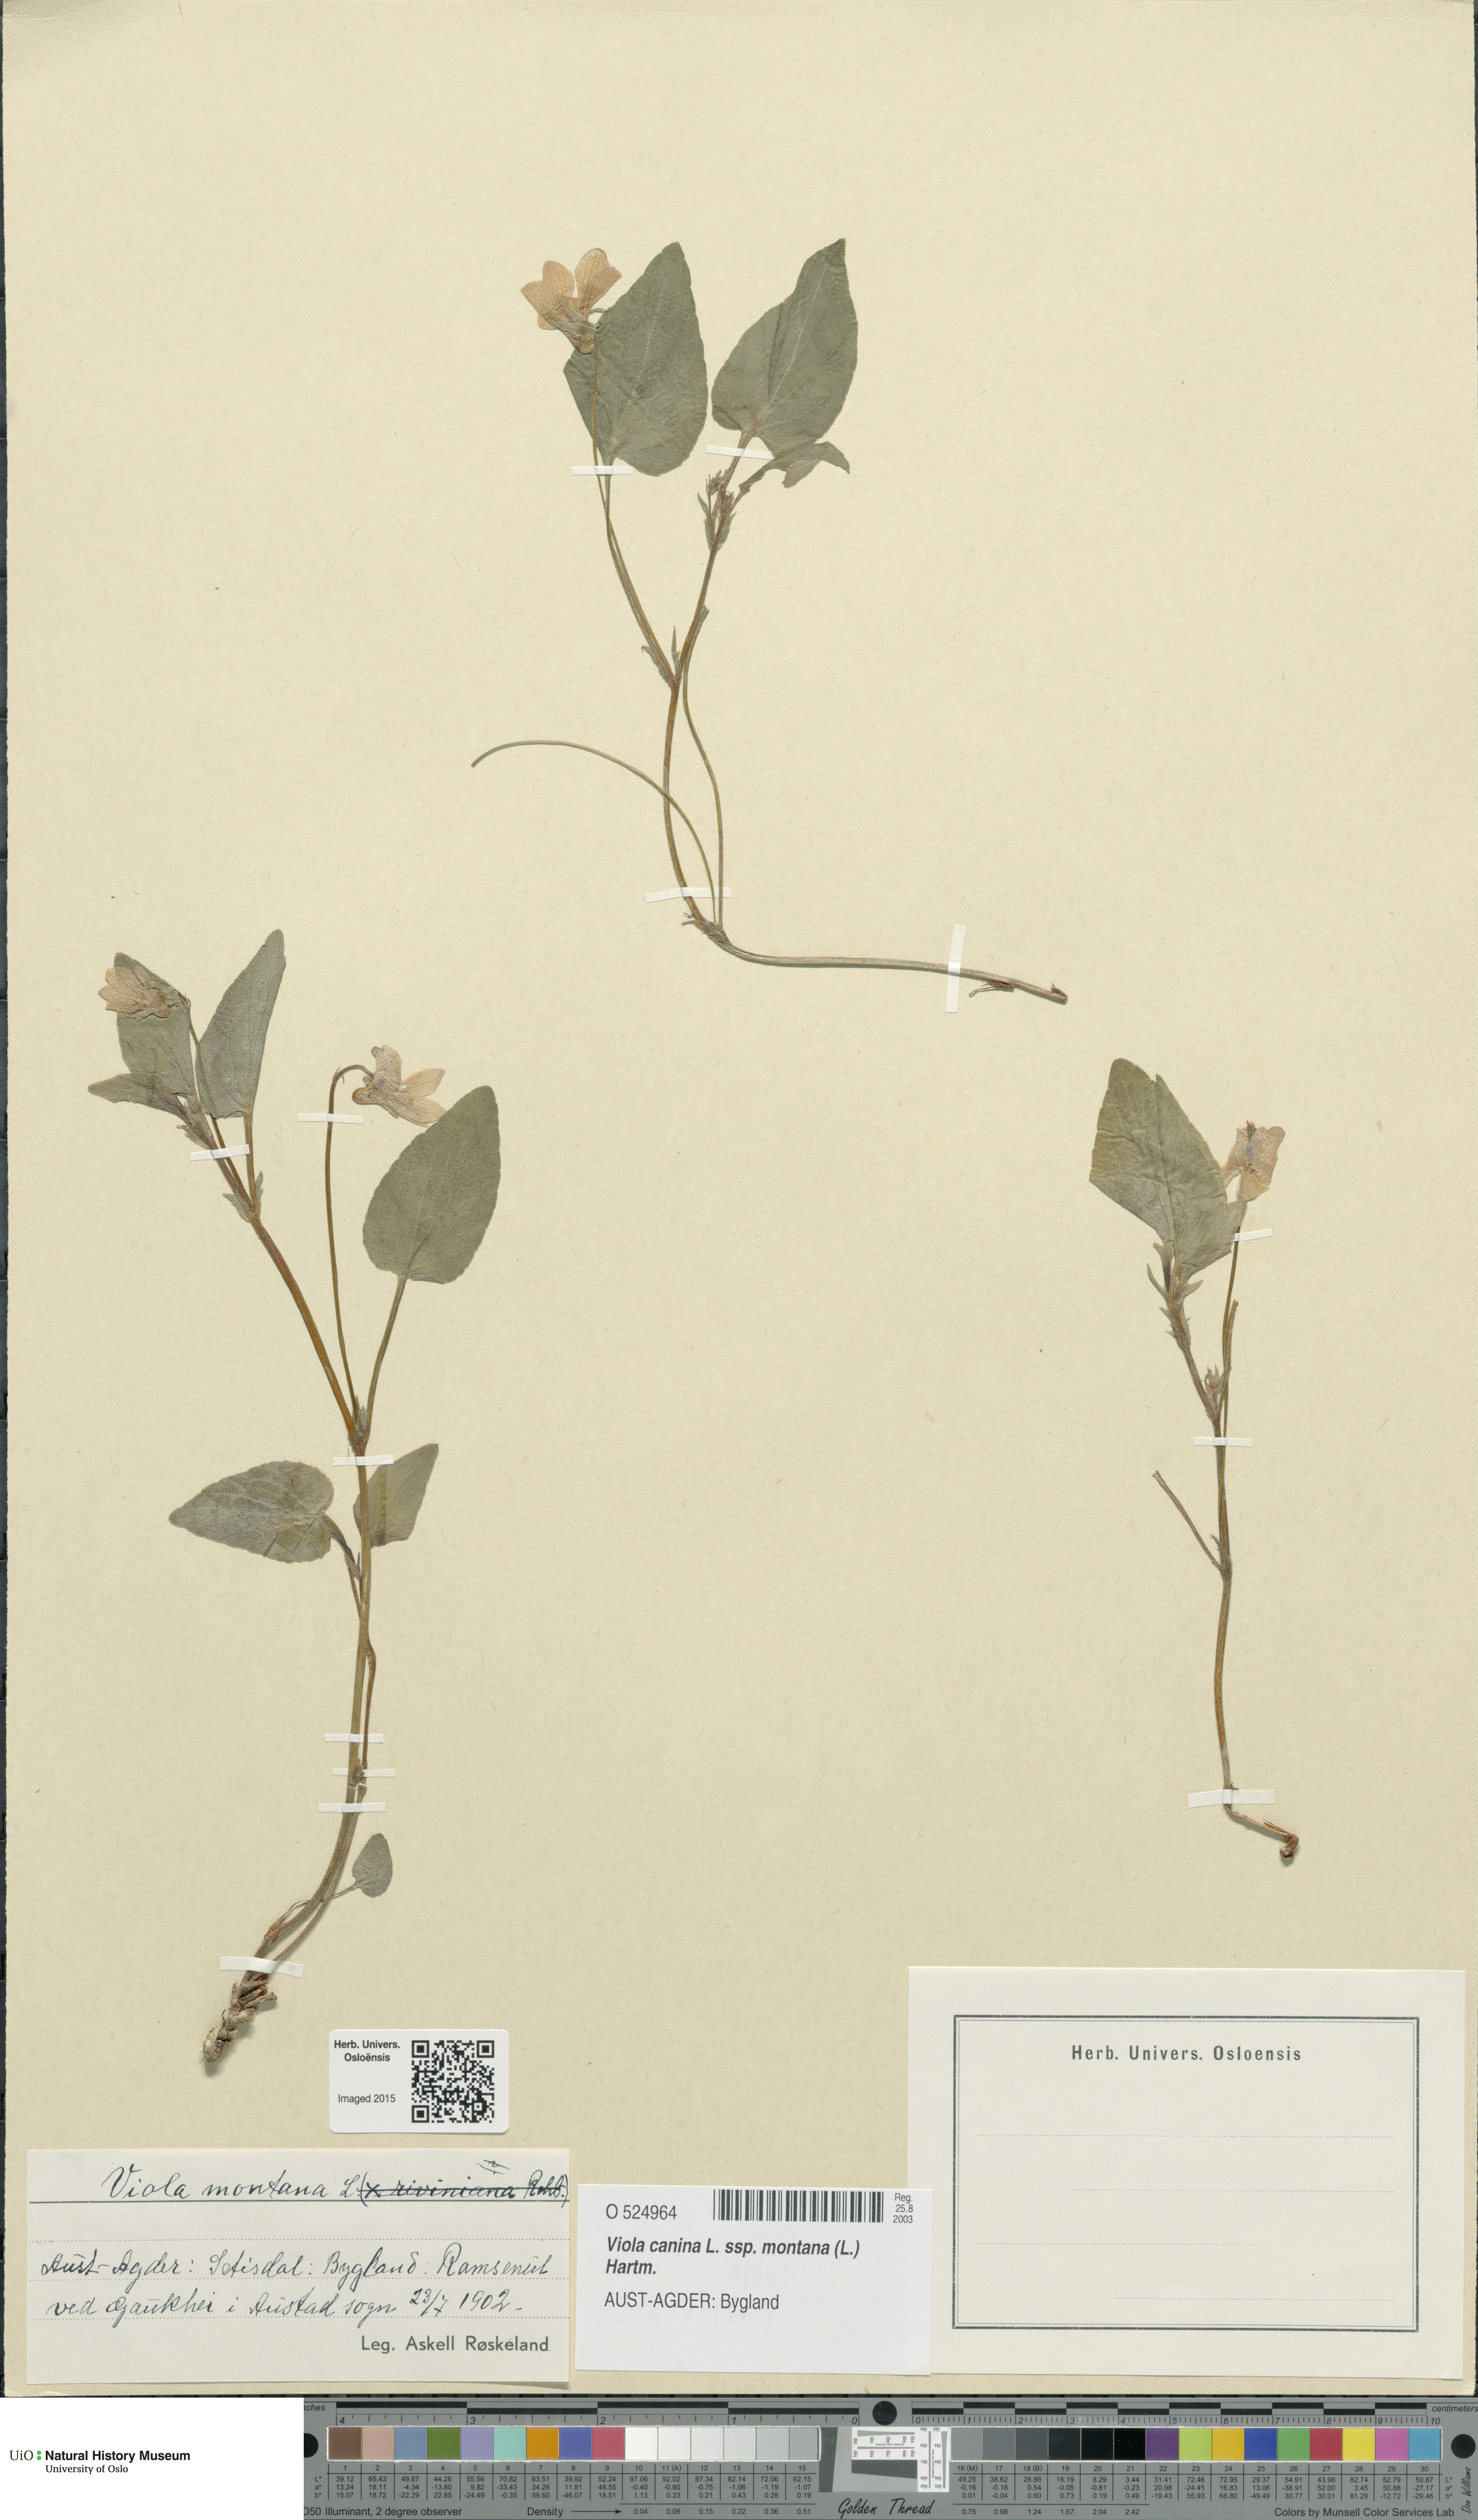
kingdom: Plantae
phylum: Tracheophyta
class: Magnoliopsida
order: Malpighiales
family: Violaceae
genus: Viola
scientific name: Viola ruppii
